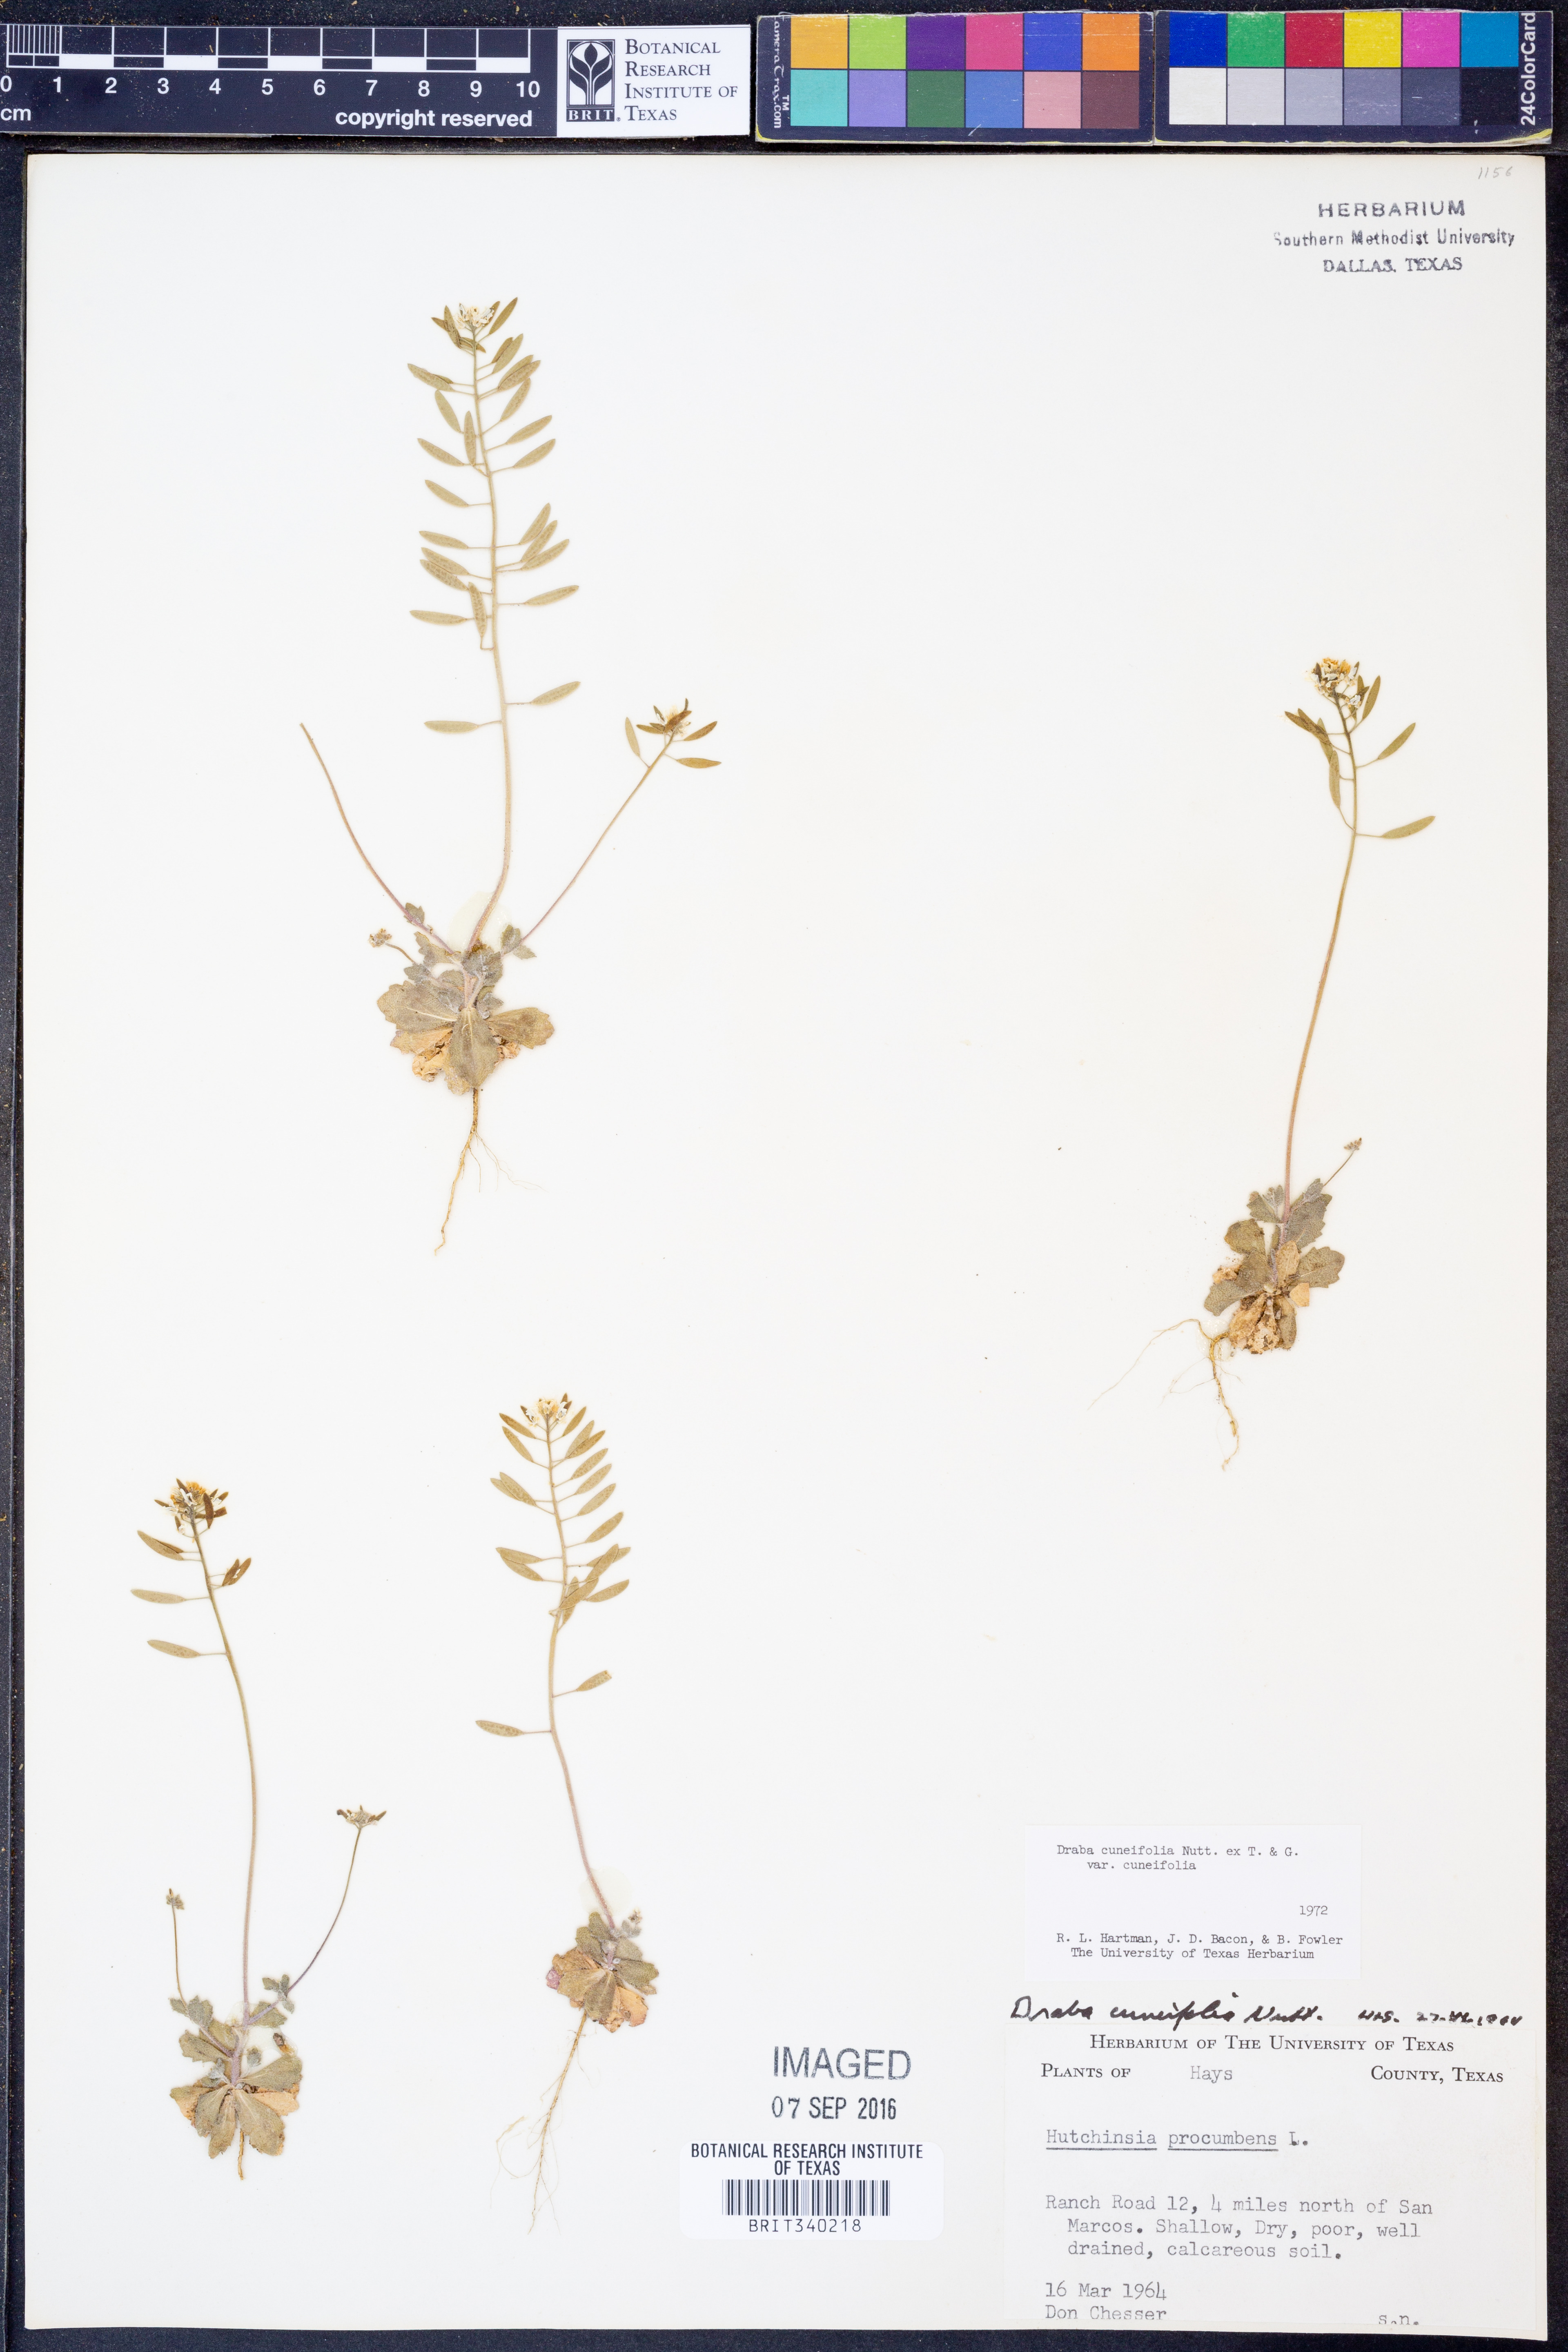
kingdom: Plantae
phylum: Tracheophyta
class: Magnoliopsida
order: Brassicales
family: Brassicaceae
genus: Tomostima
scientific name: Tomostima cuneifolia
